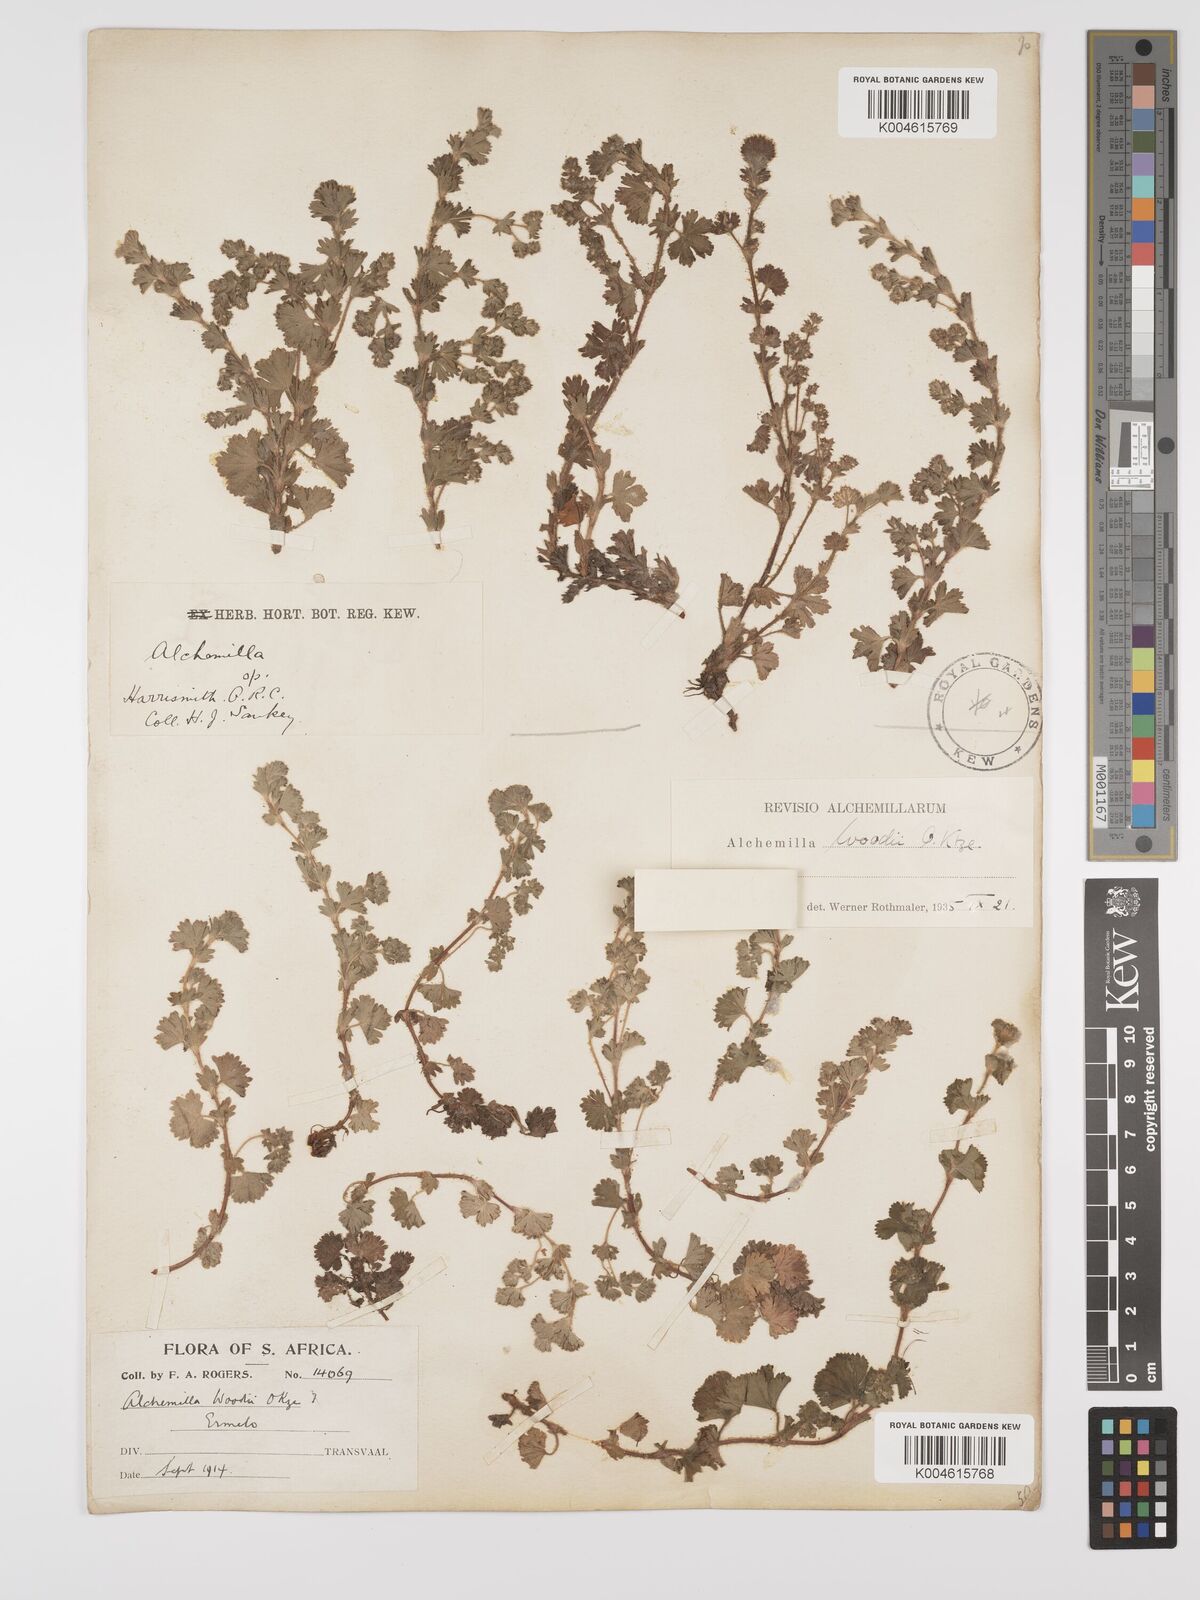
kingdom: Plantae
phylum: Tracheophyta
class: Magnoliopsida
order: Rosales
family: Rosaceae
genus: Alchemilla
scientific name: Alchemilla woodii
